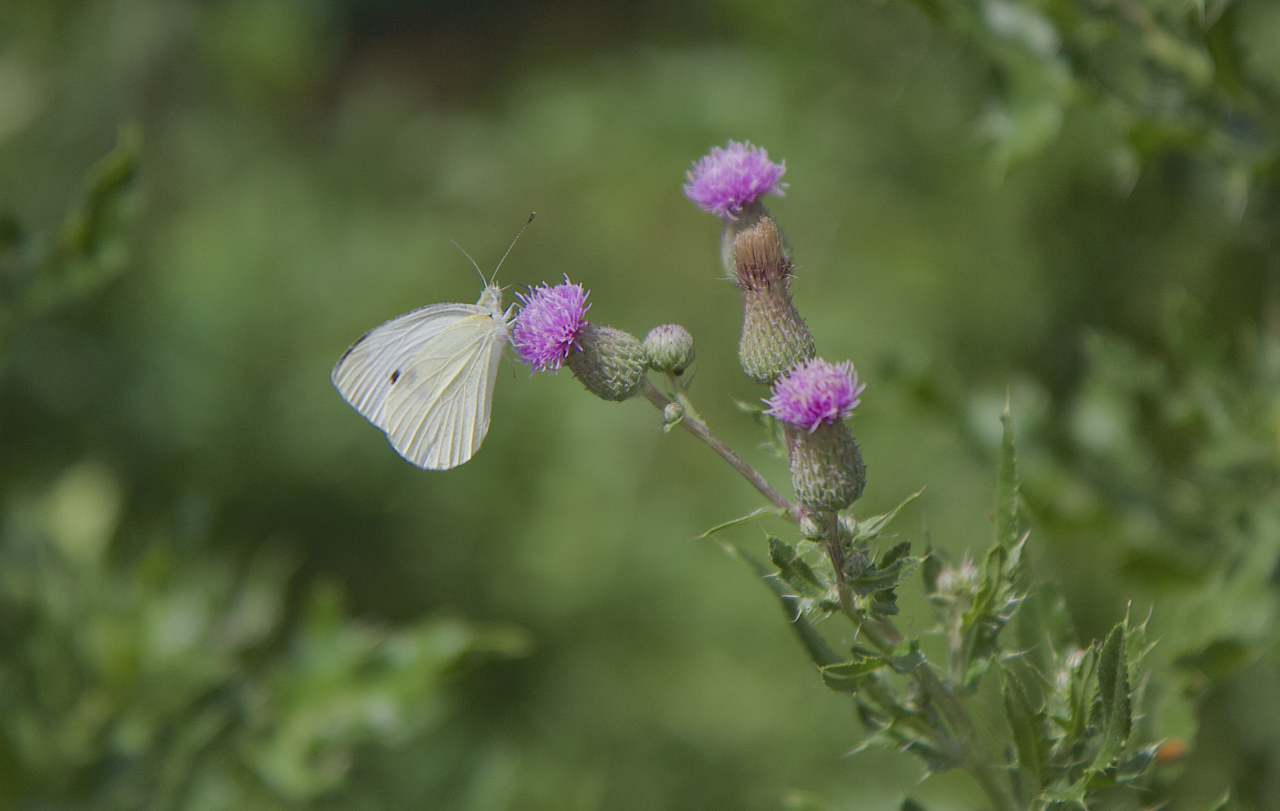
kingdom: Animalia
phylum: Arthropoda
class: Insecta
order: Lepidoptera
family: Pieridae
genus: Pieris
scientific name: Pieris rapae
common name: Cabbage White
